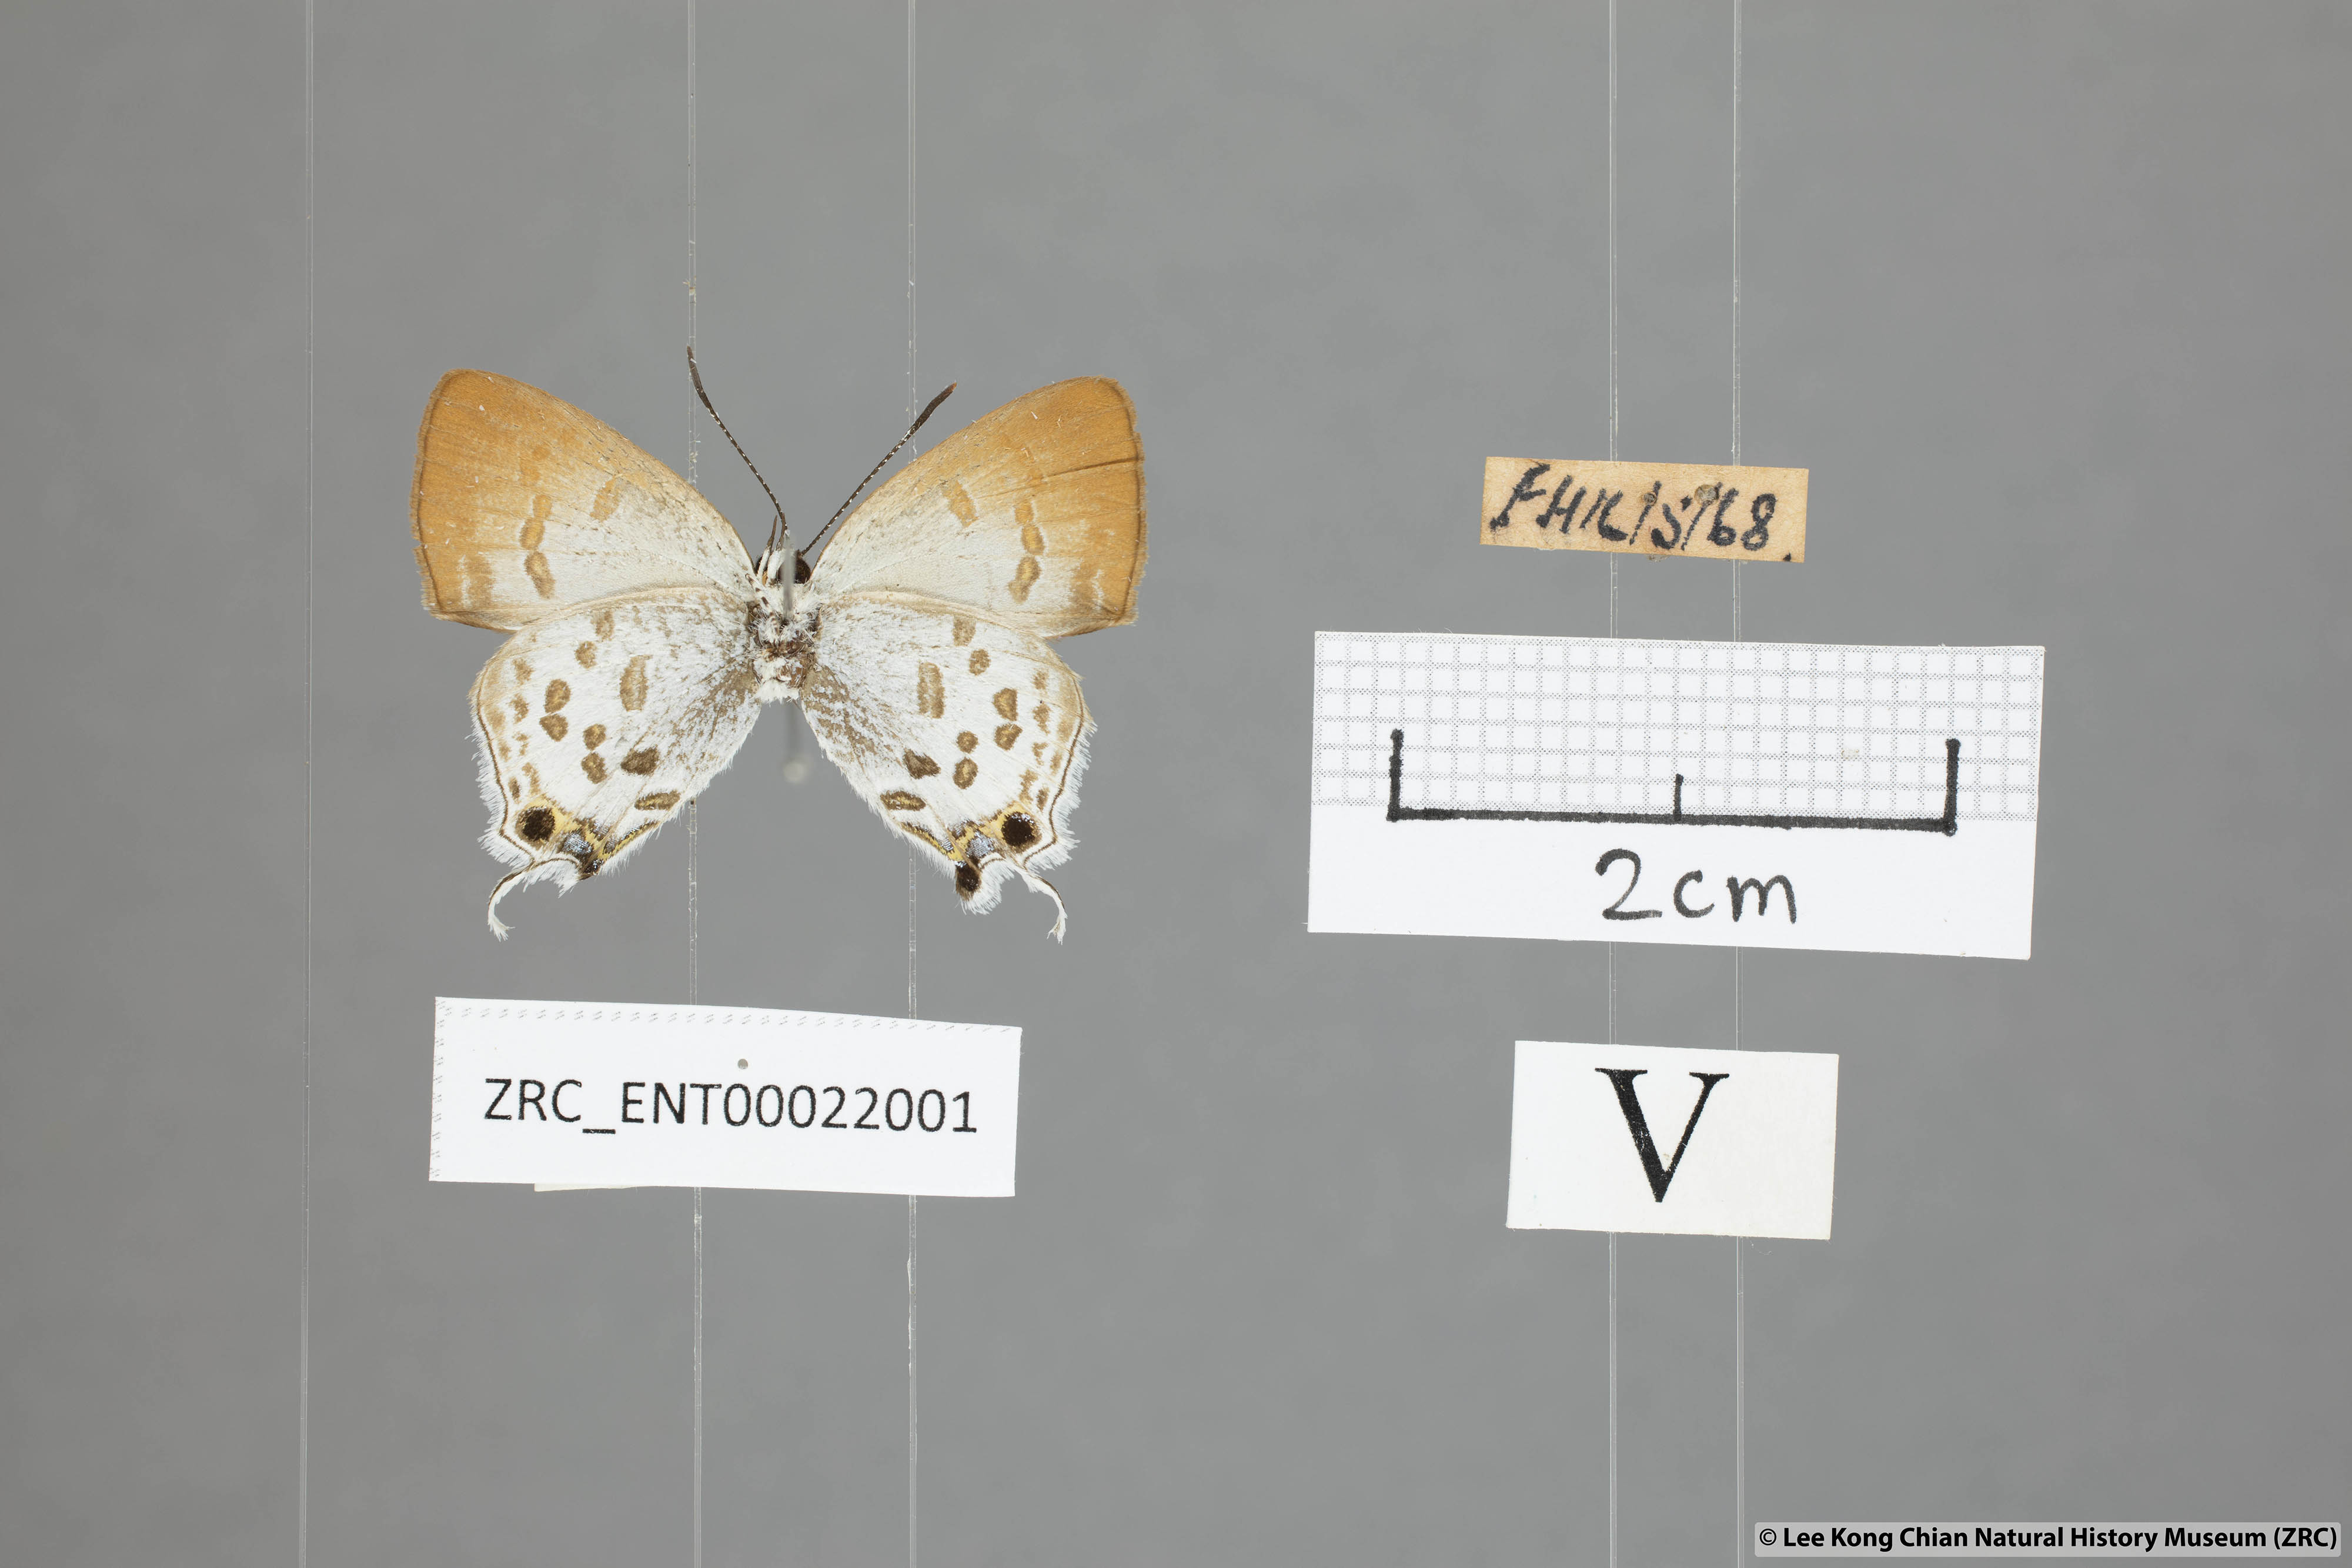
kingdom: Animalia
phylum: Arthropoda
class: Insecta
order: Lepidoptera
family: Lycaenidae
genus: Sinthusa
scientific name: Sinthusa malika
